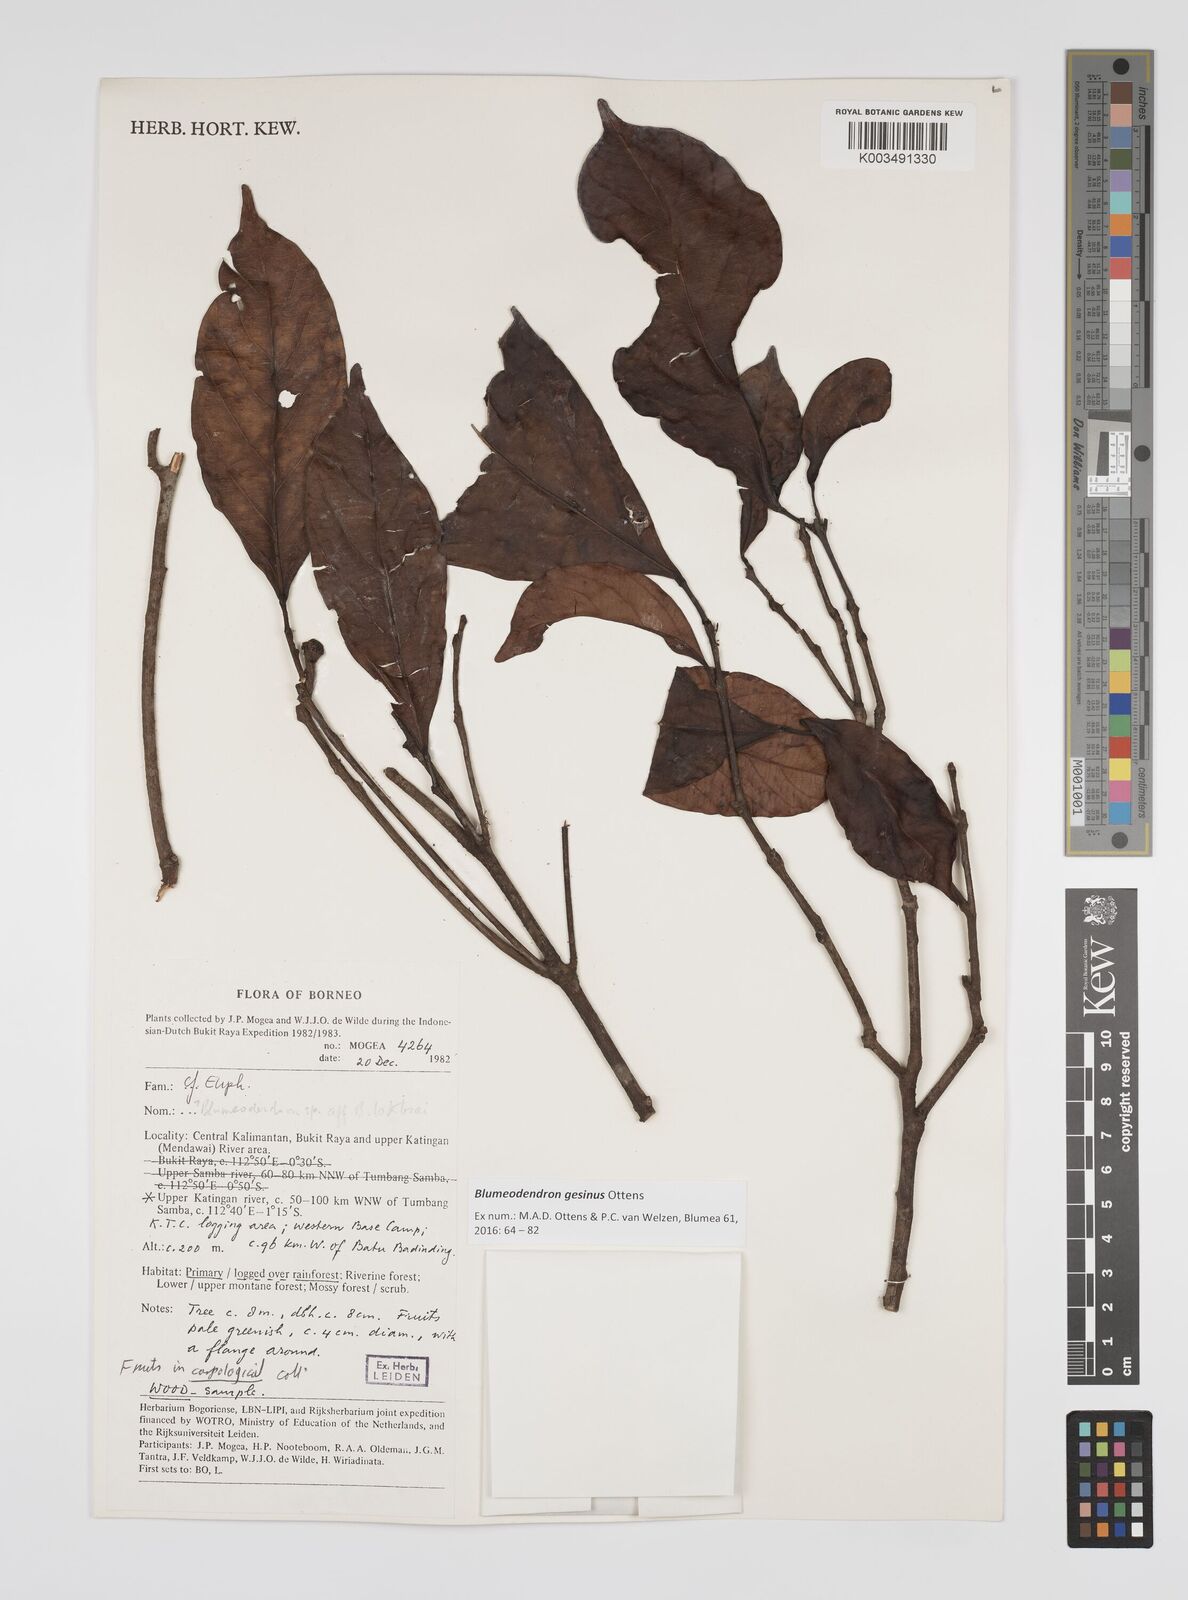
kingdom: Plantae
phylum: Tracheophyta
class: Magnoliopsida
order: Malpighiales
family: Euphorbiaceae
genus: Blumeodendron
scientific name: Blumeodendron gesinus
